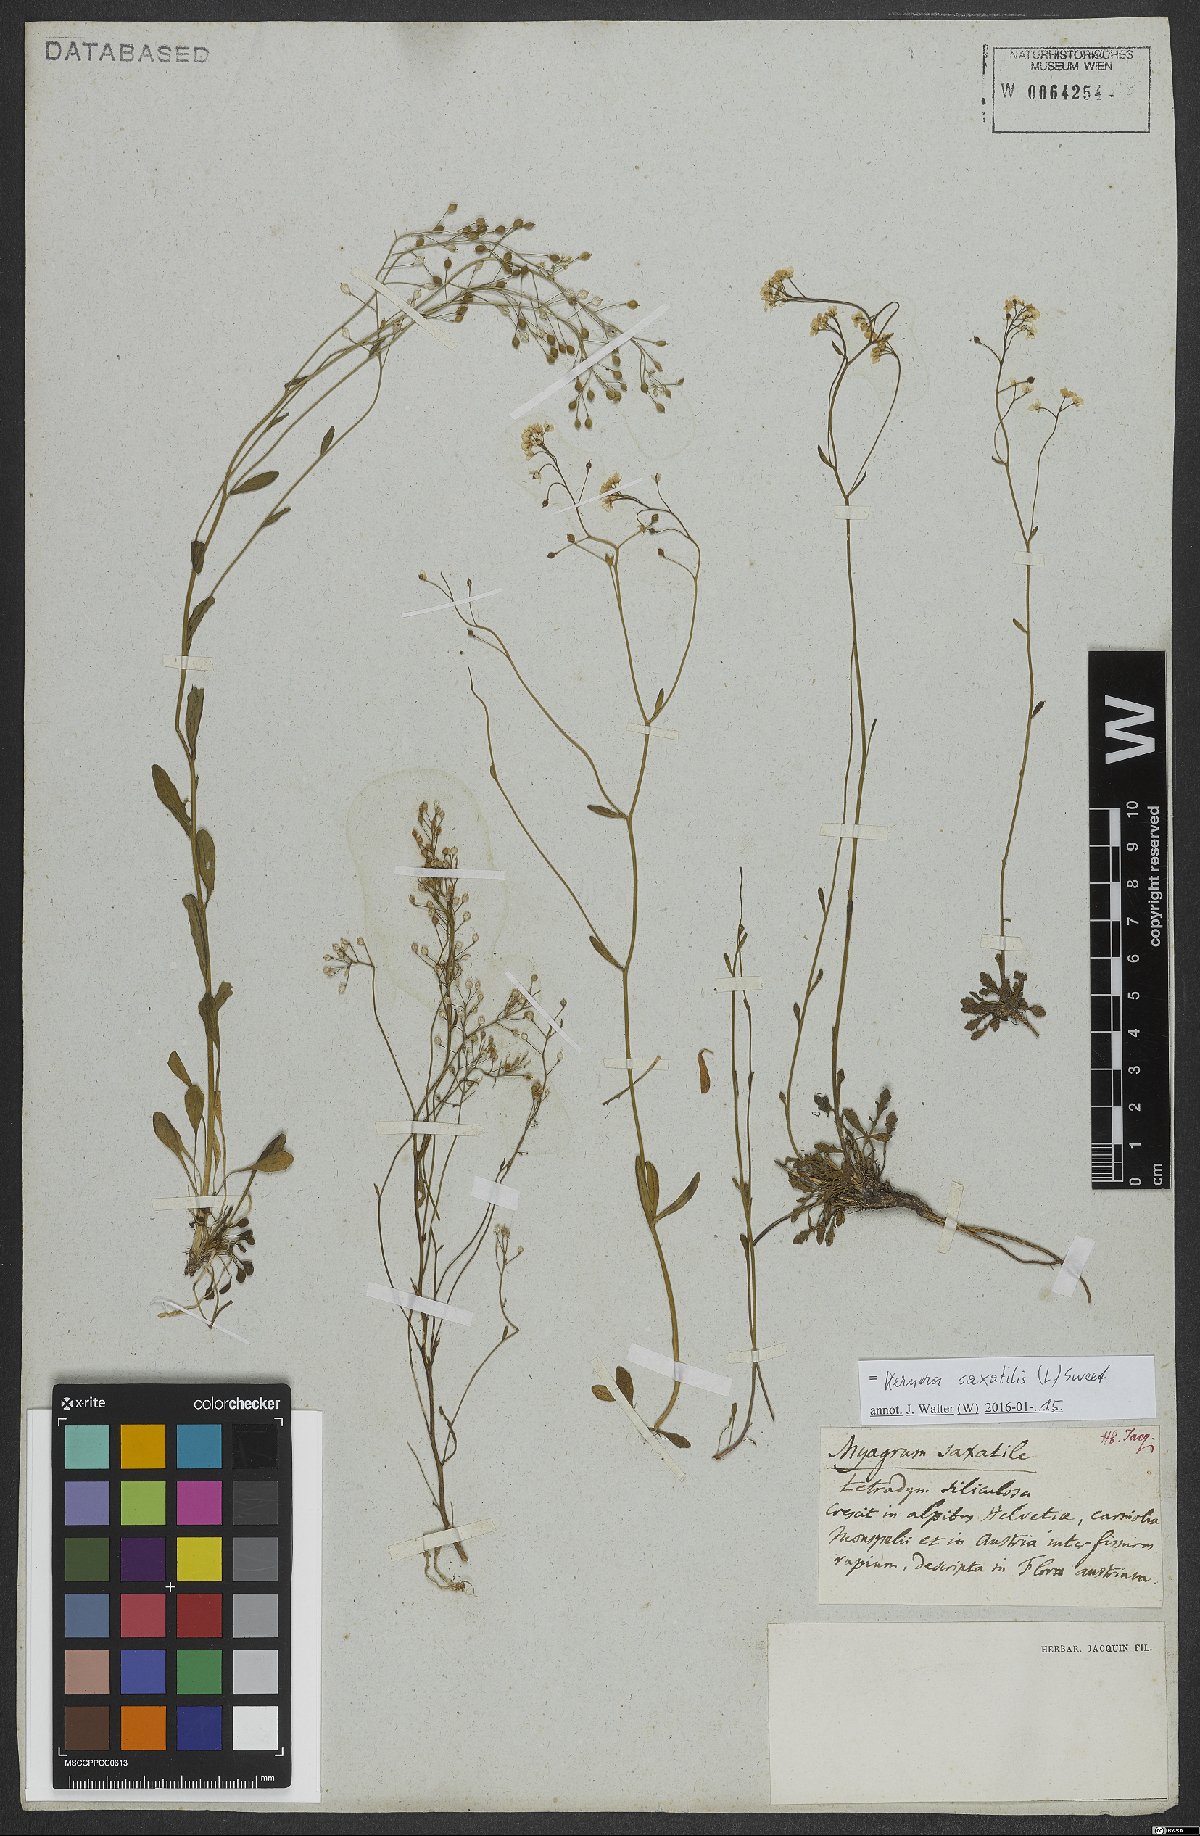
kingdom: Plantae
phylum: Tracheophyta
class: Magnoliopsida
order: Brassicales
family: Brassicaceae
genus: Kernera
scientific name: Kernera saxatilis
